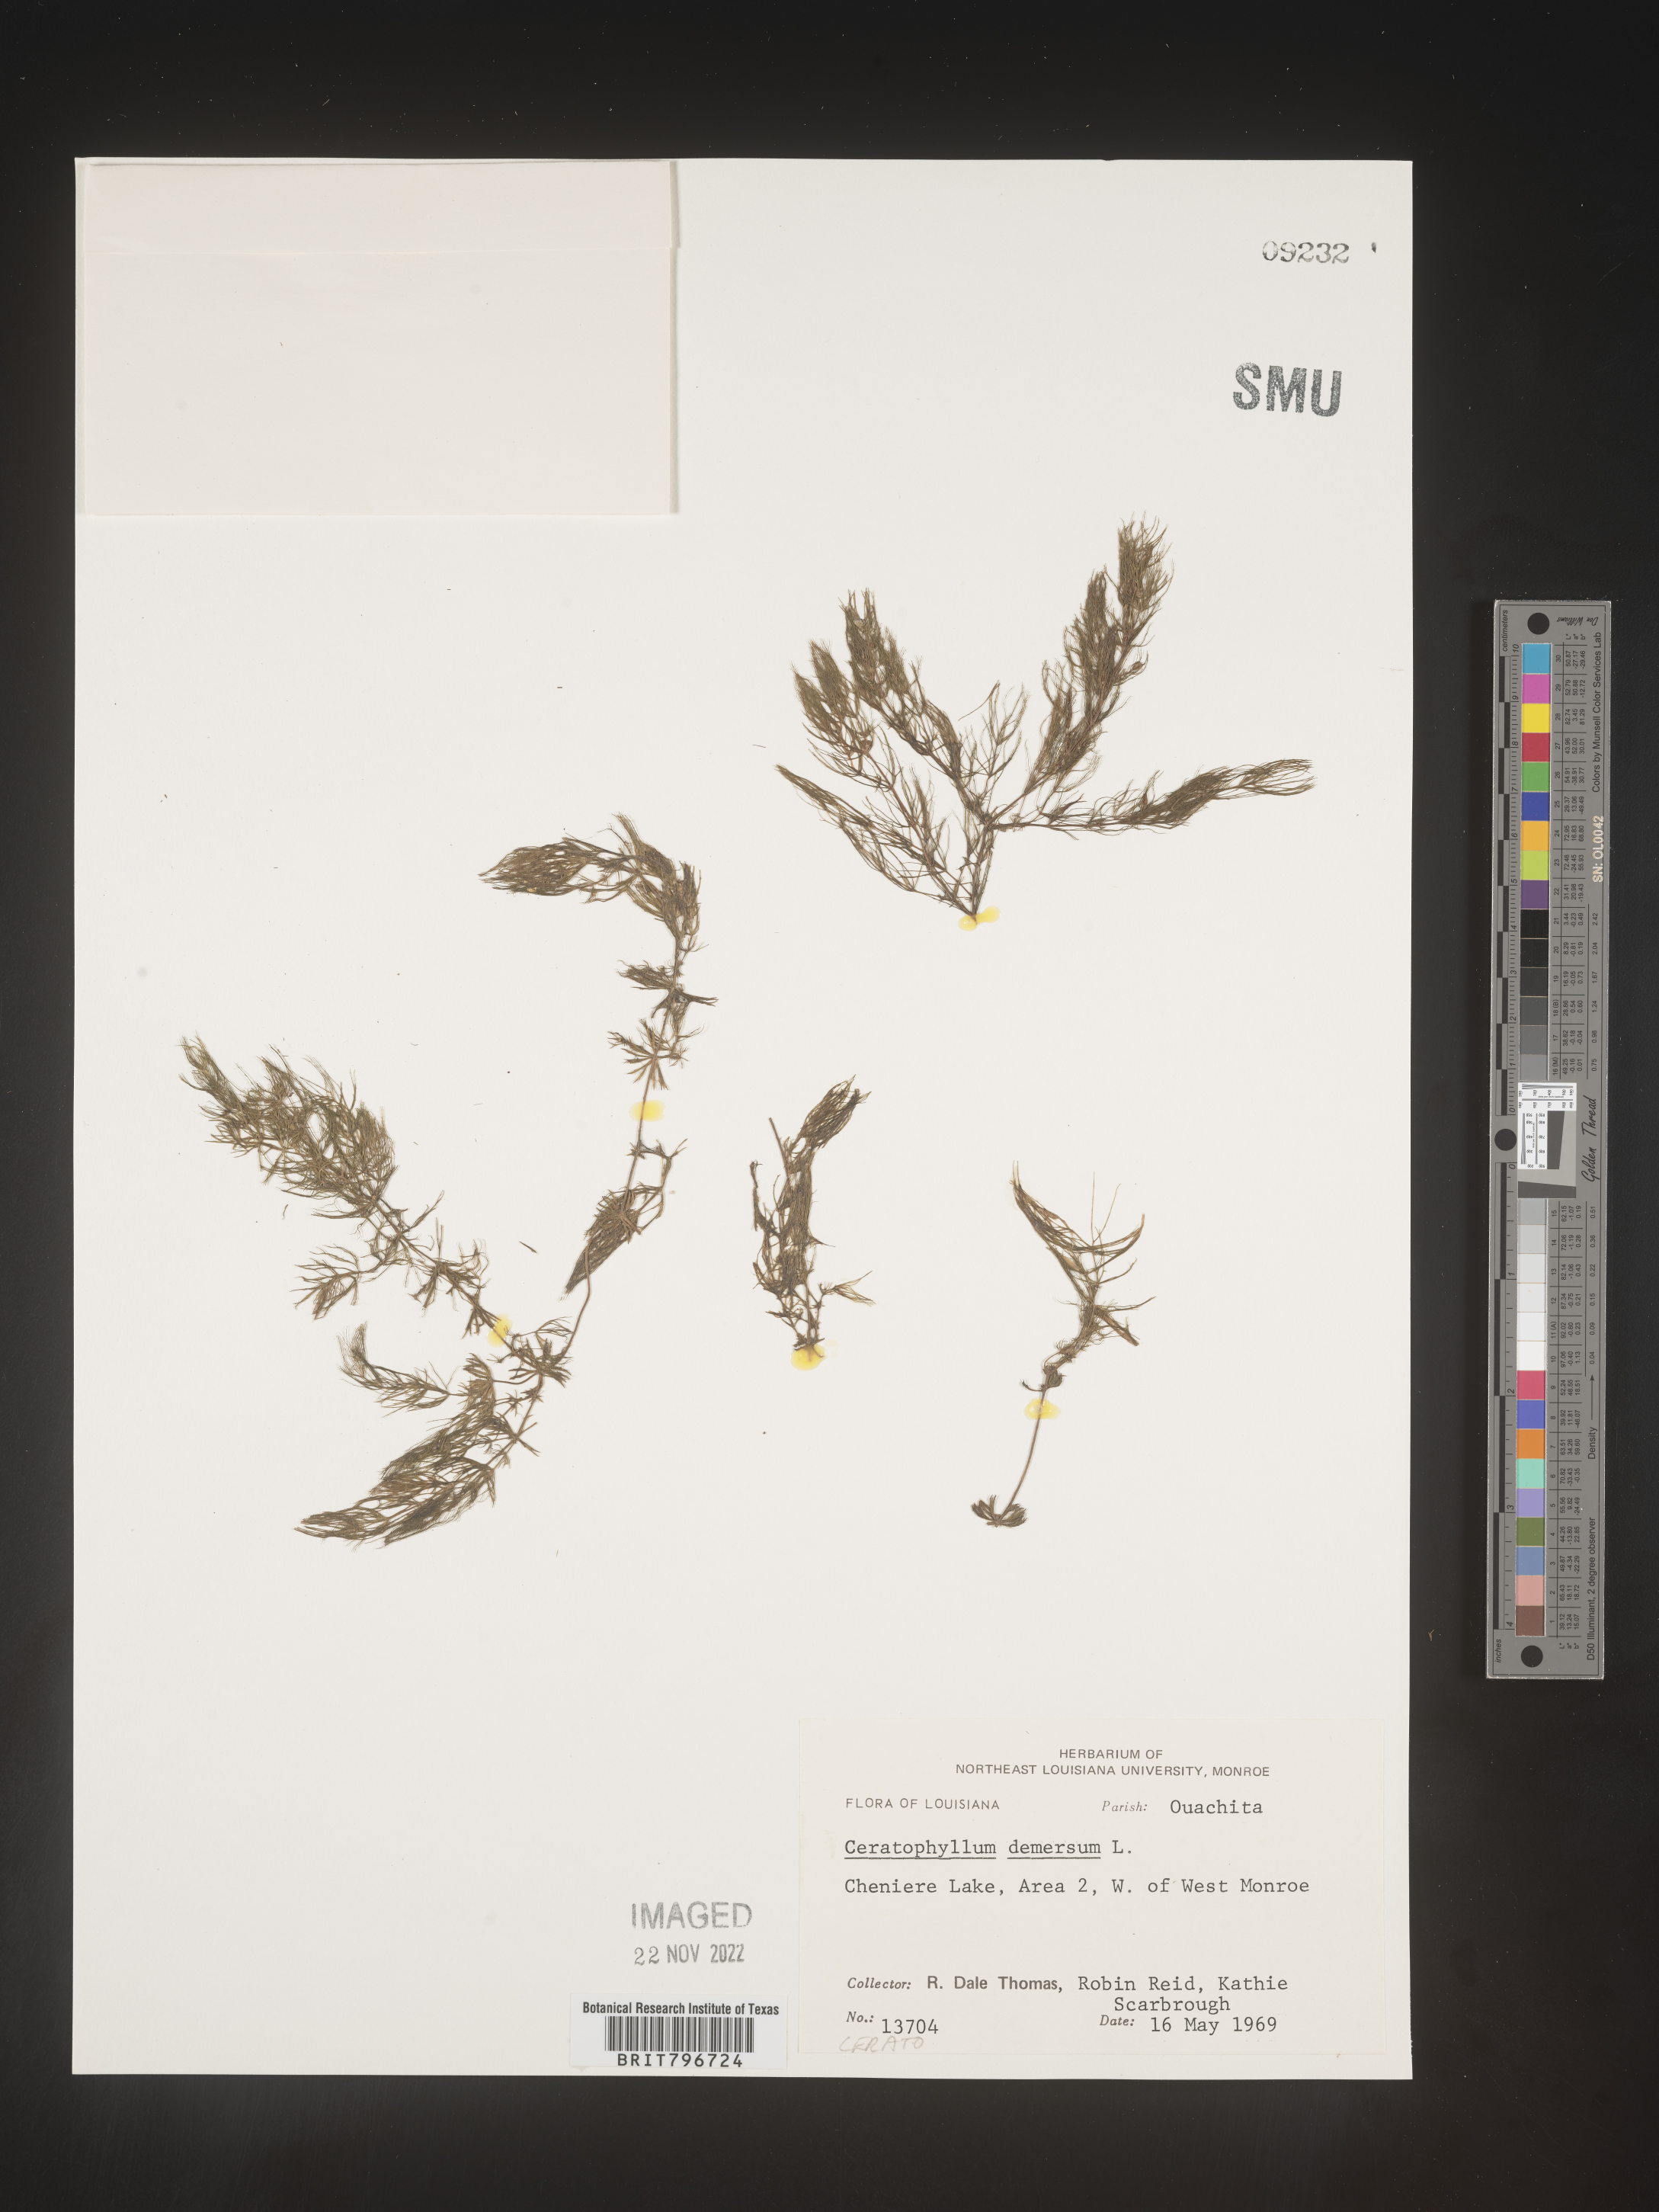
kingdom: Plantae
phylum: Tracheophyta
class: Magnoliopsida
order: Ceratophyllales
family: Ceratophyllaceae
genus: Ceratophyllum
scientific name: Ceratophyllum demersum
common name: Rigid hornwort
